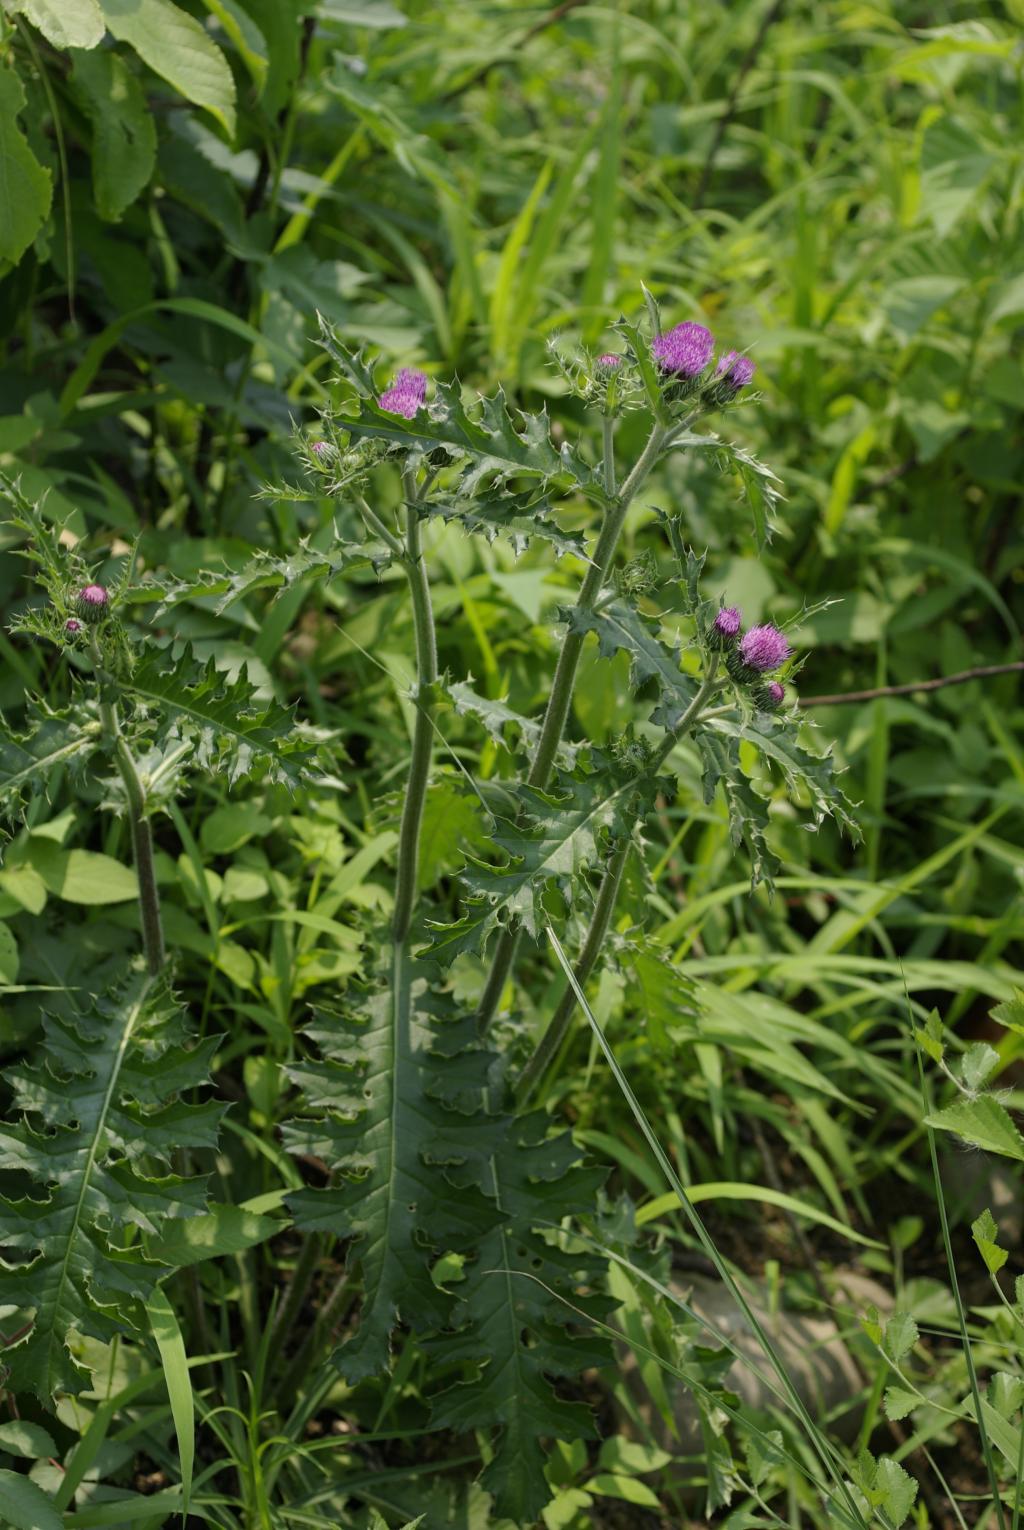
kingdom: Plantae
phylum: Tracheophyta
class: Magnoliopsida
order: Asterales
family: Asteraceae
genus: Cirsium
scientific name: Cirsium japonicum
